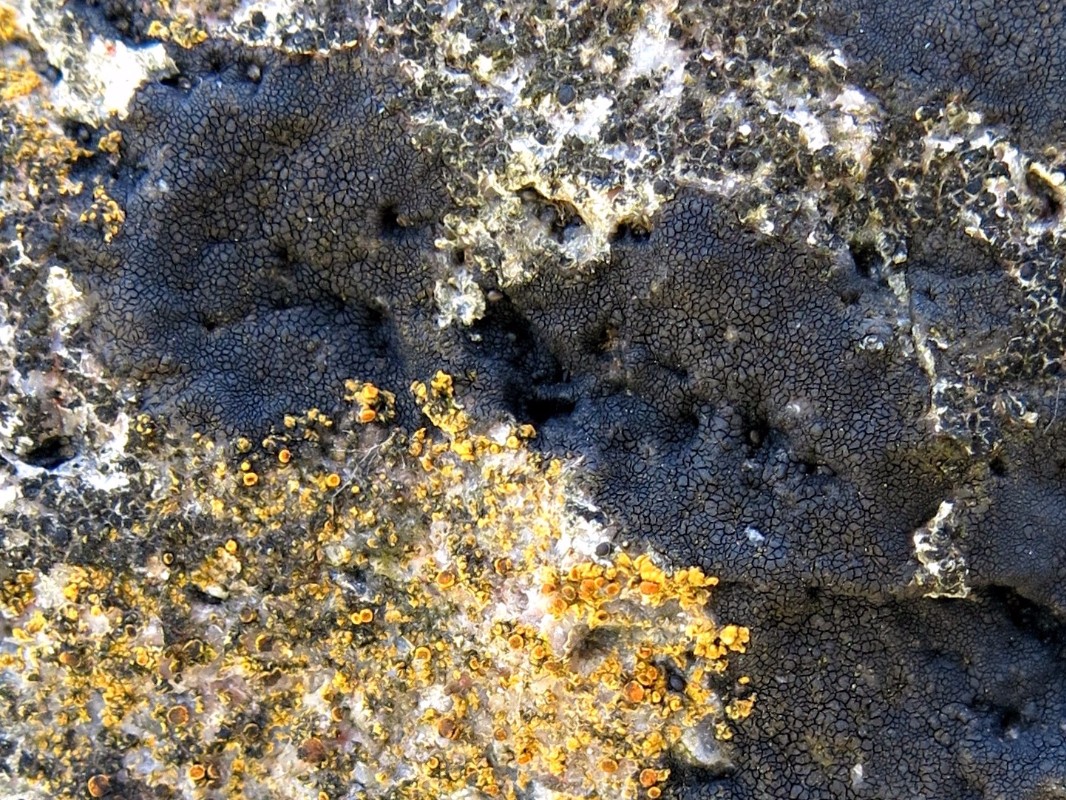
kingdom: Fungi
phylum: Ascomycota
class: Eurotiomycetes
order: Verrucariales
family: Verrucariaceae
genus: Hydropunctaria
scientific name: Hydropunctaria maura
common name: strand-vortelav
